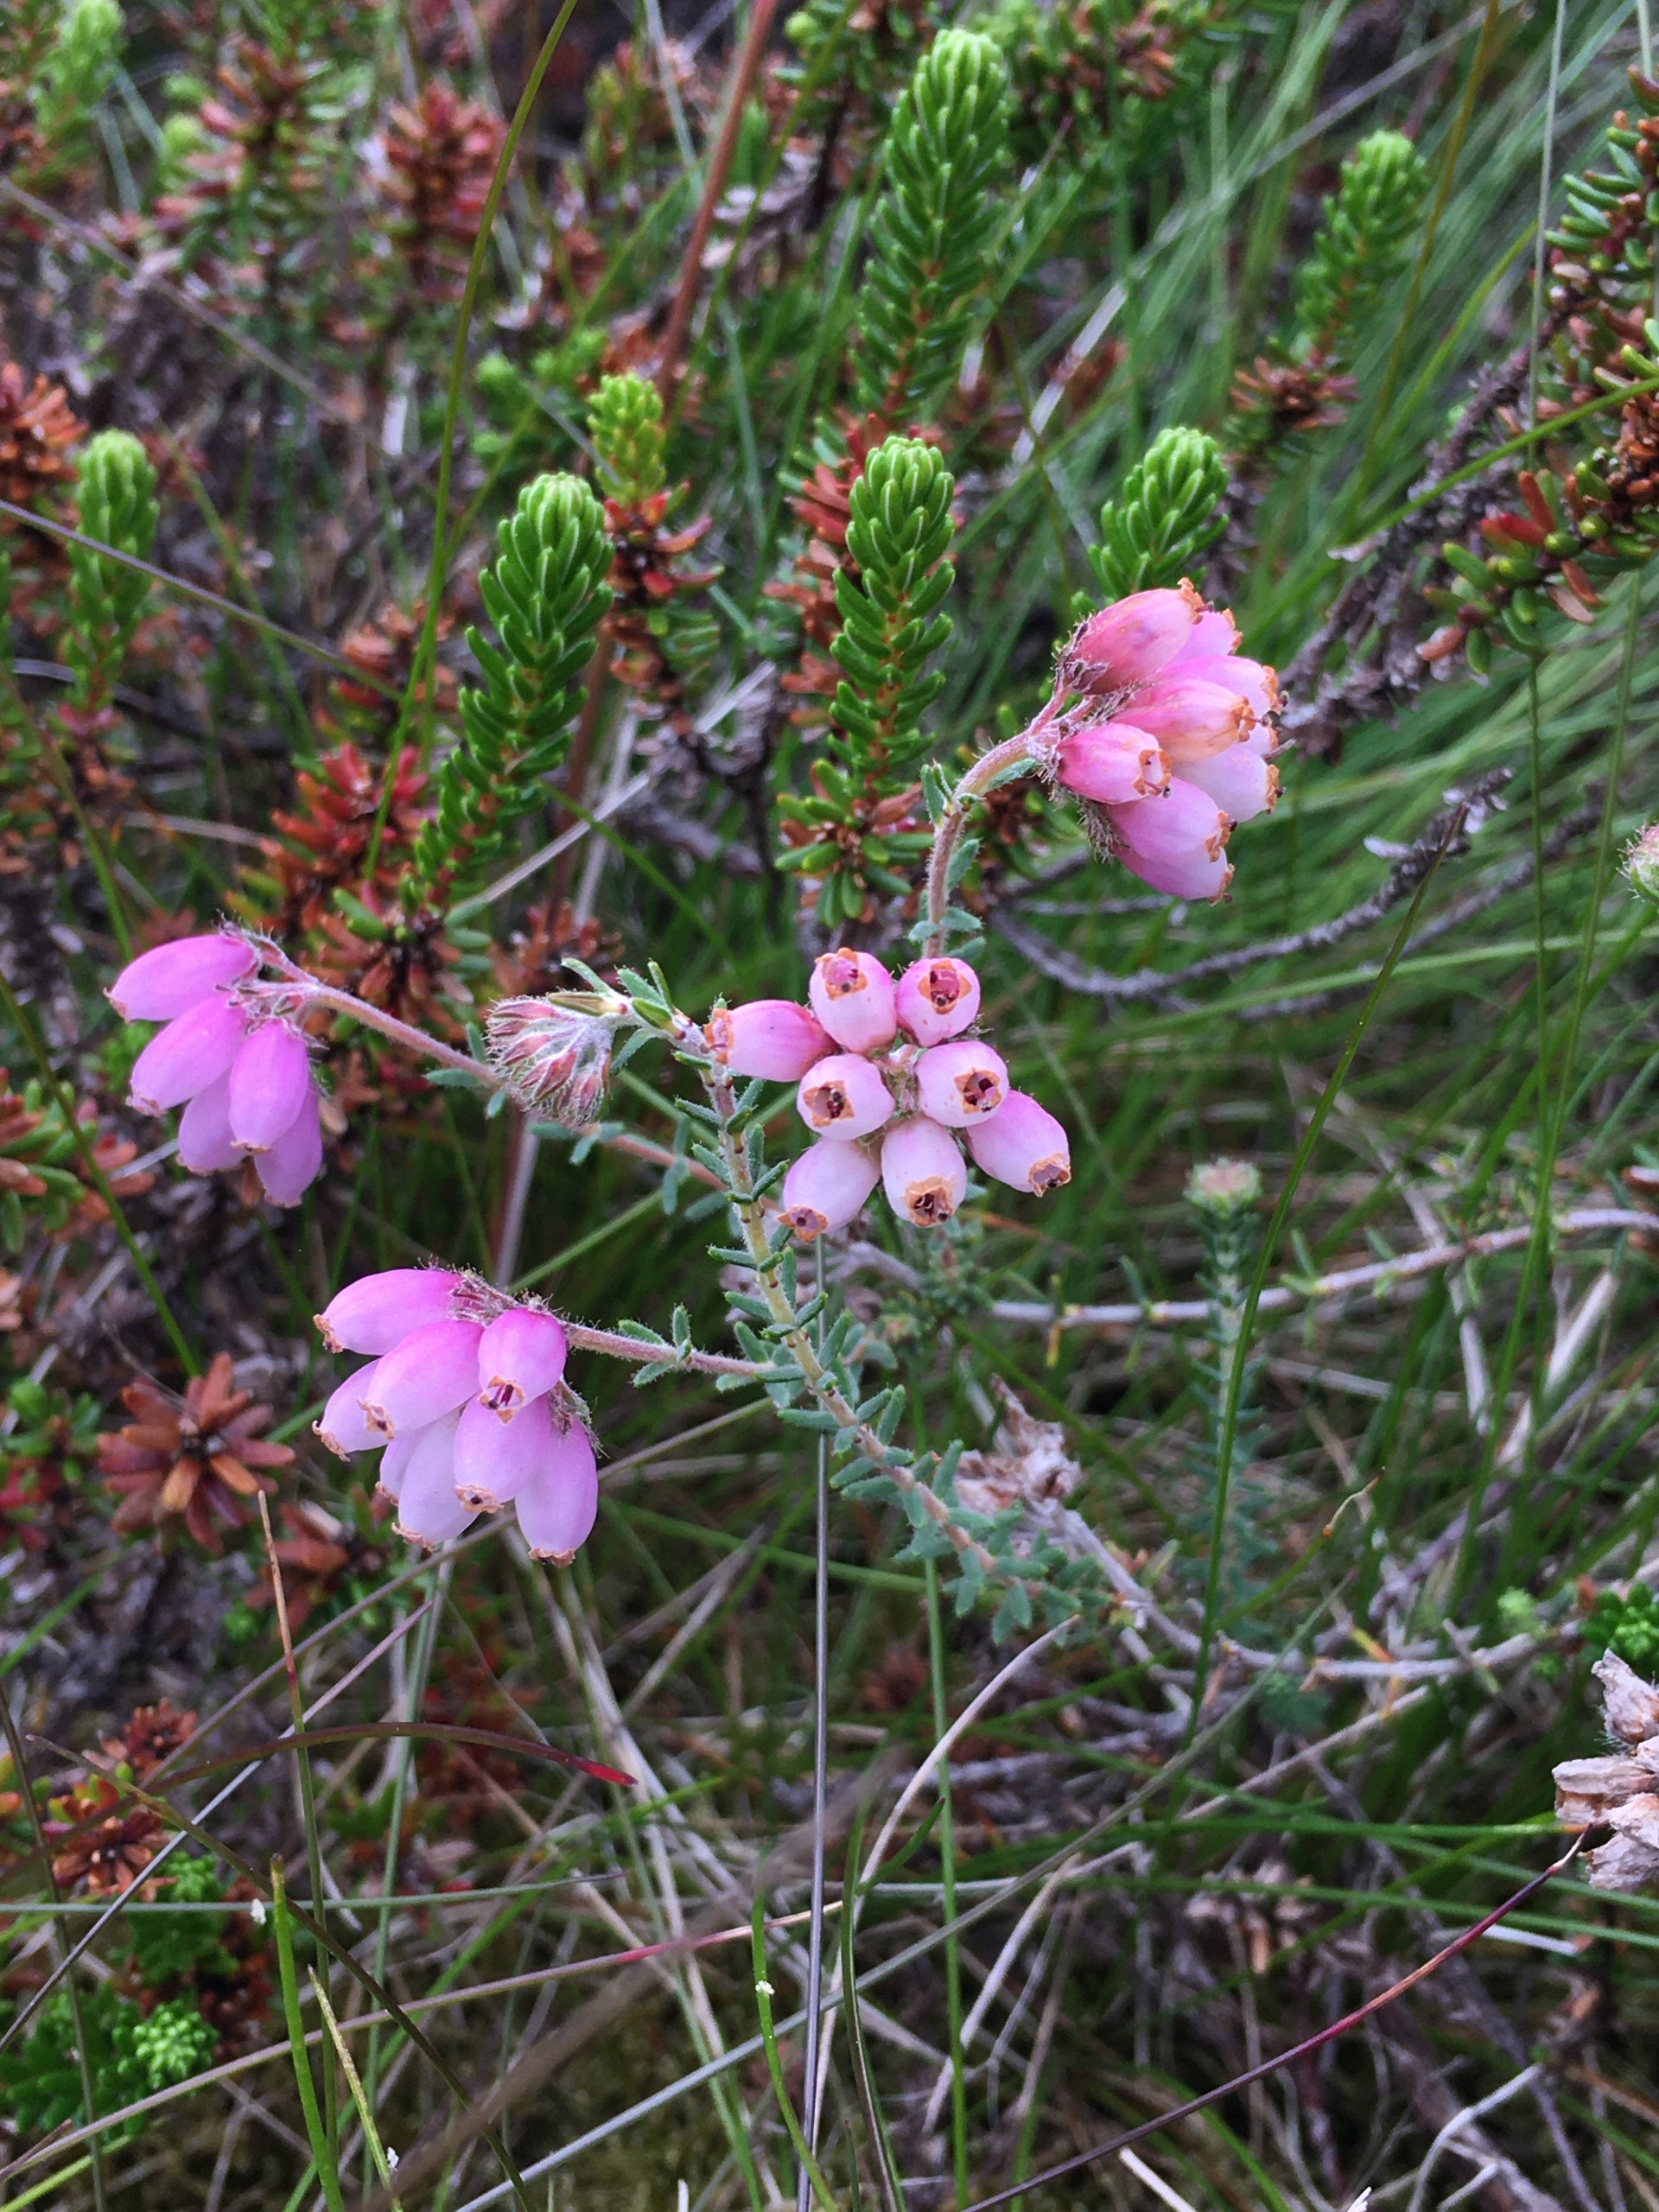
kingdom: Plantae
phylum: Tracheophyta
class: Magnoliopsida
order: Ericales
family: Ericaceae
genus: Erica
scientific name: Erica tetralix
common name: Klokkelyng
